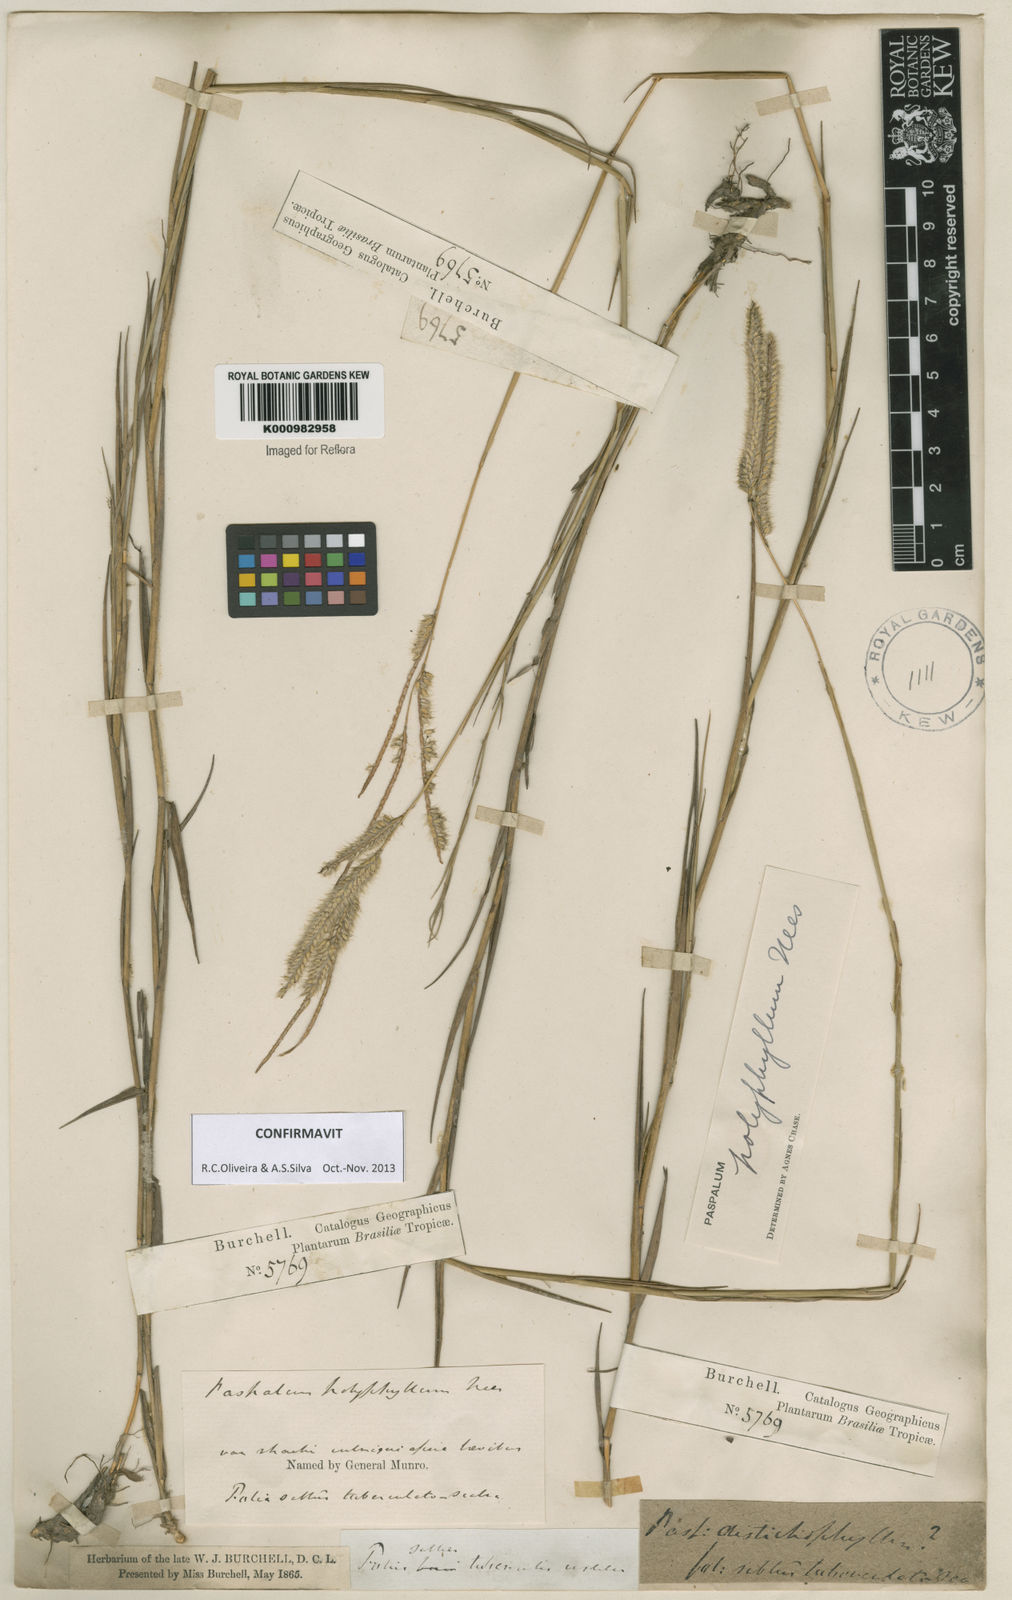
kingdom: Plantae
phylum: Tracheophyta
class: Liliopsida
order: Poales
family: Poaceae
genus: Paspalum
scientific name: Paspalum
